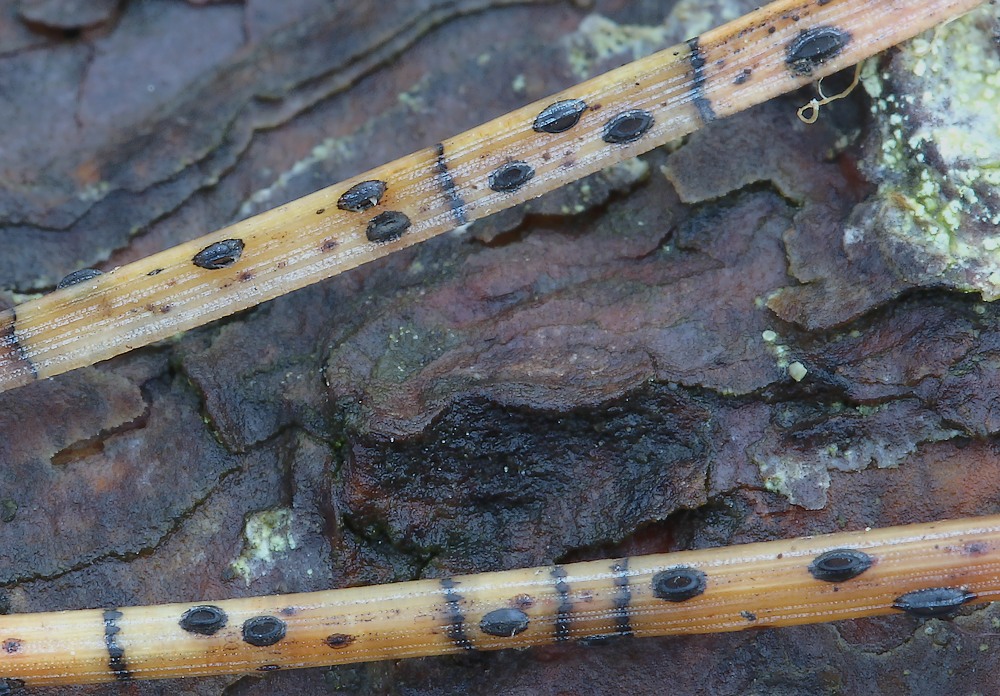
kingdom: Fungi
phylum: Ascomycota
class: Leotiomycetes
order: Rhytismatales
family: Rhytismataceae
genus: Lophodermium
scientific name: Lophodermium pinastri
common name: fyrre-fureplet
